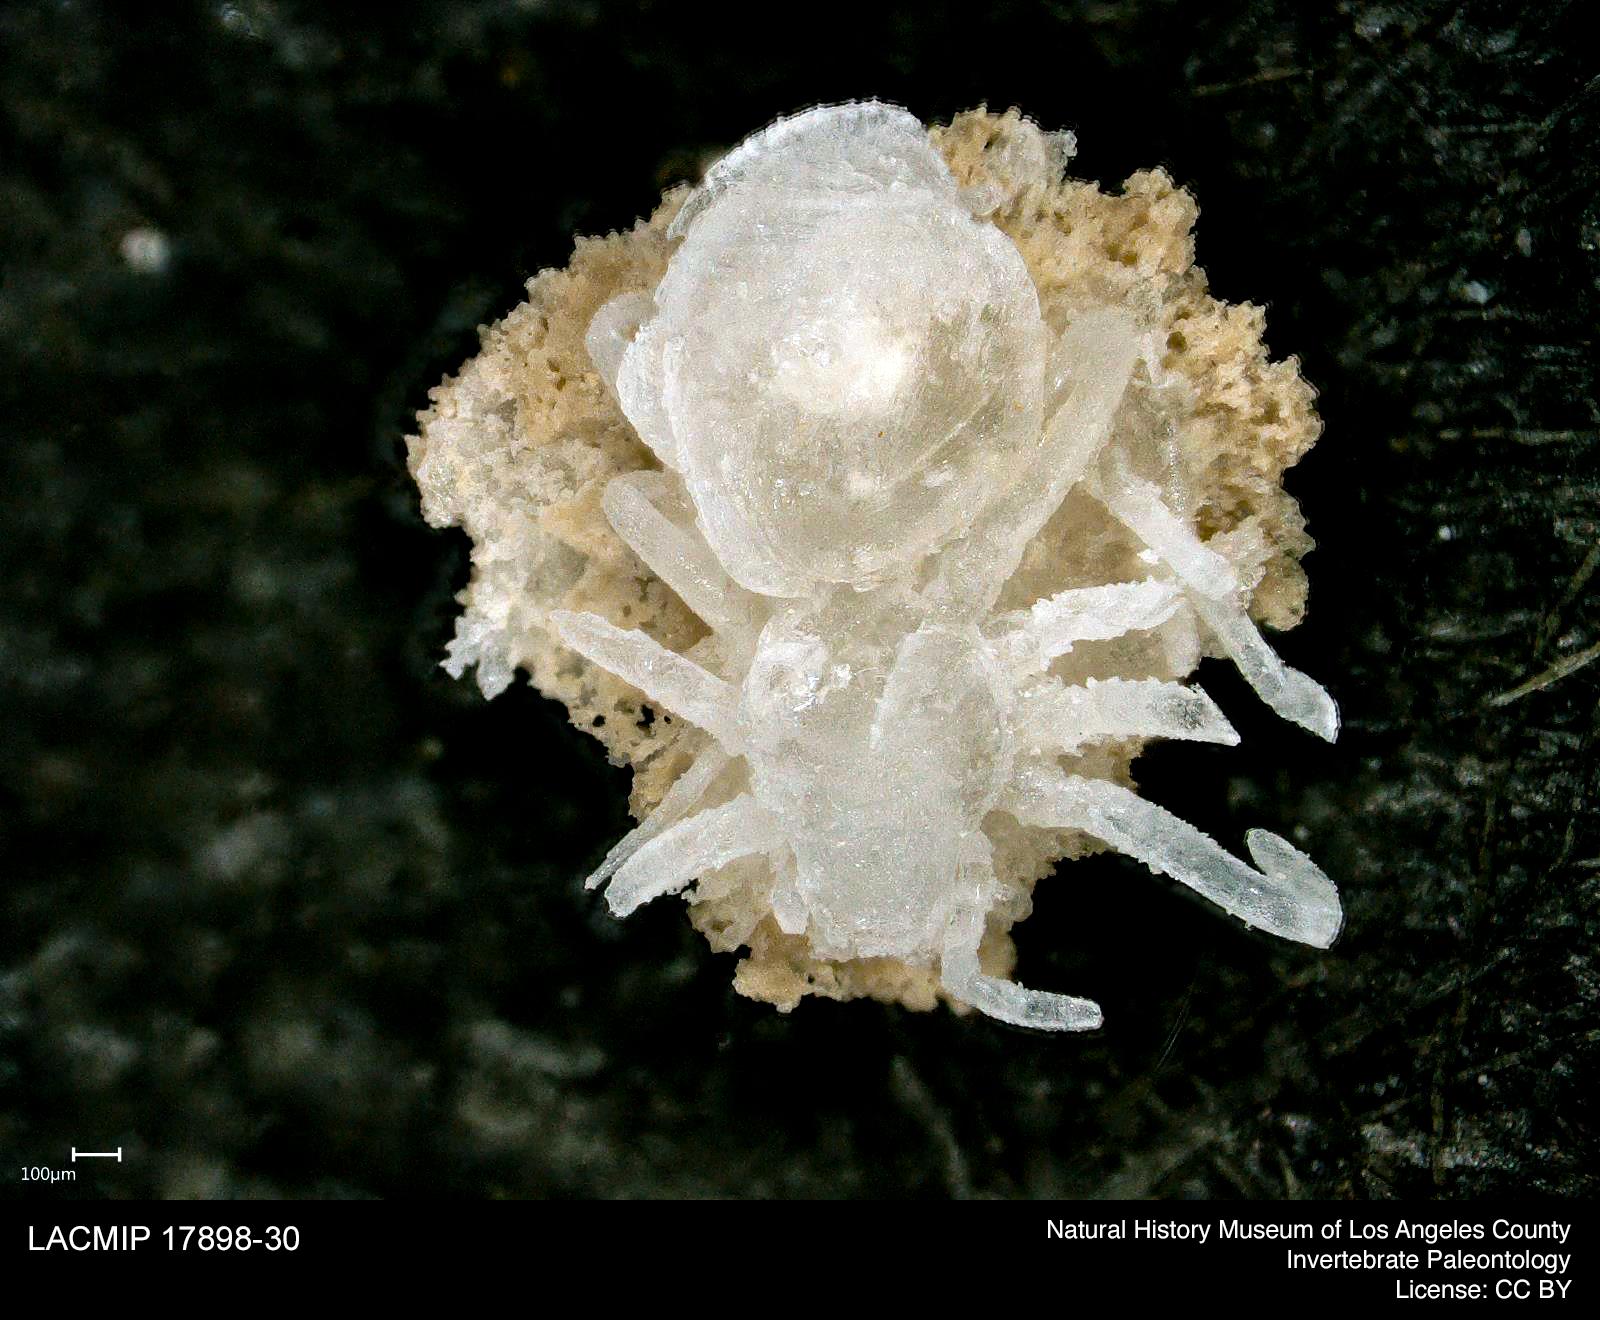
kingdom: Animalia
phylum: Arthropoda
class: Arachnida
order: Araneae
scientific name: Araneae
